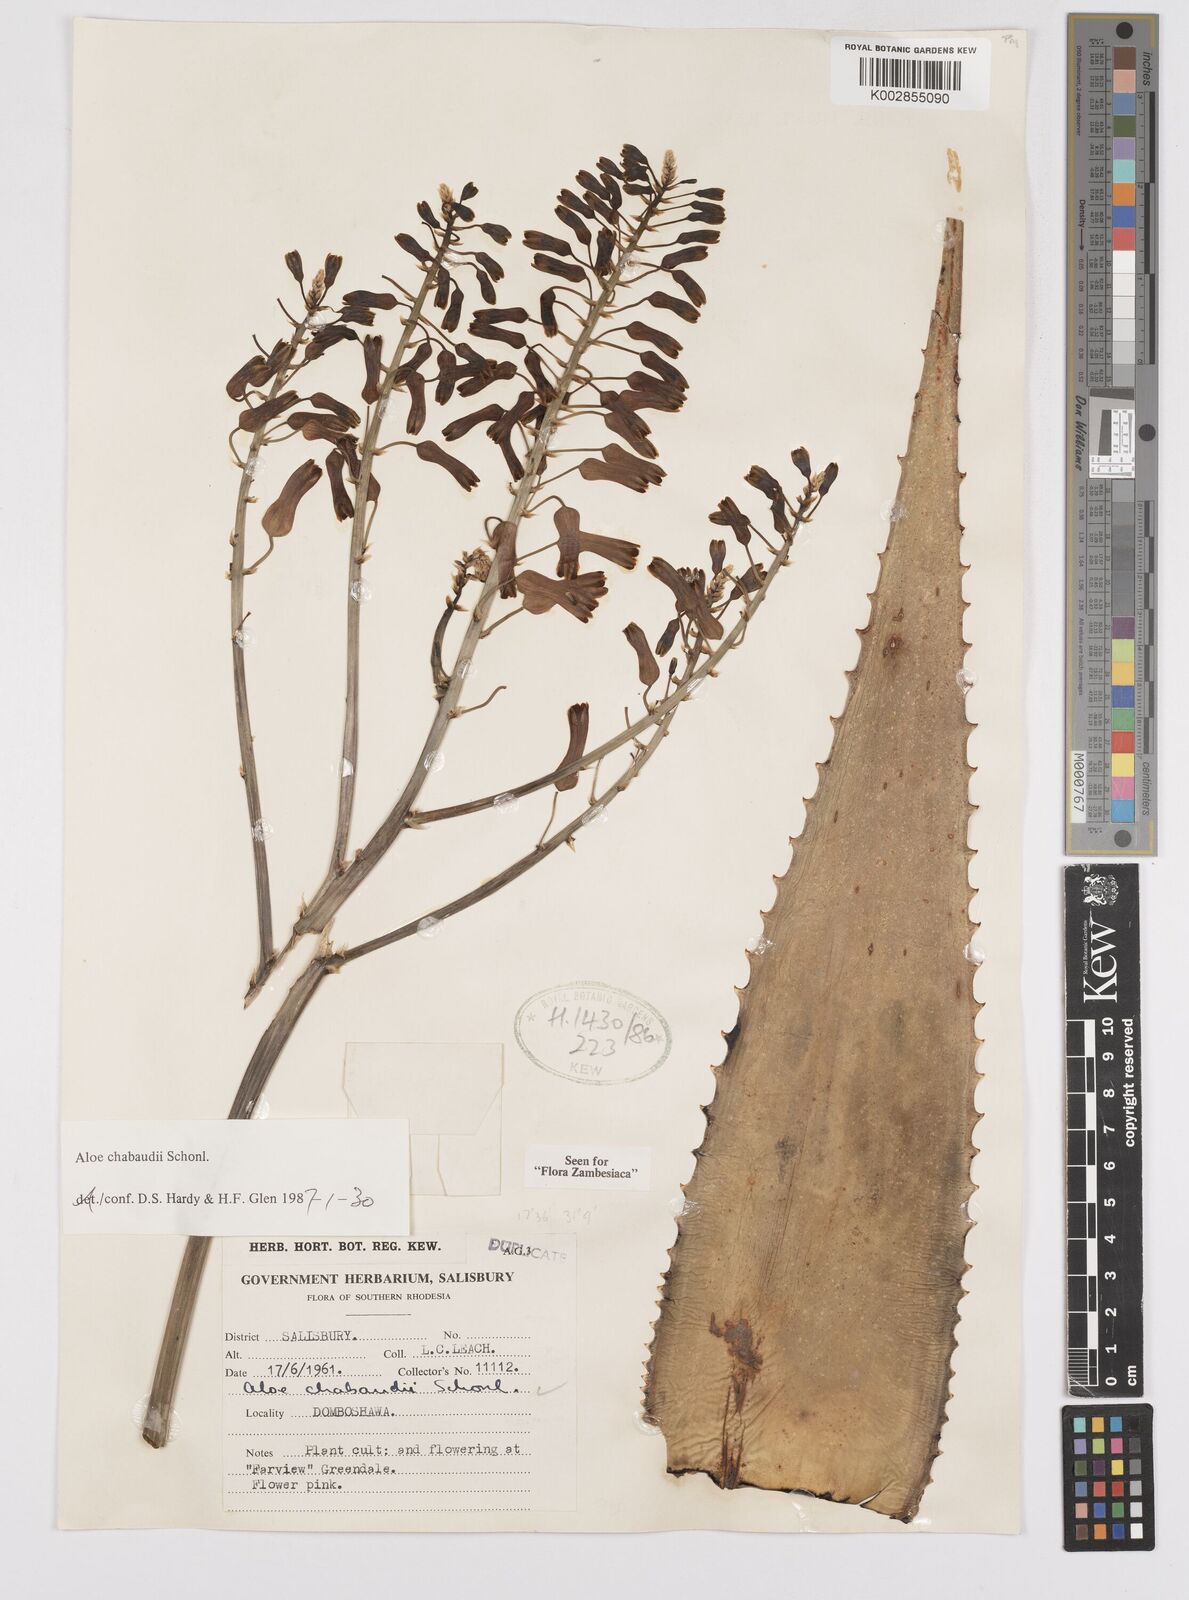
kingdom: Plantae
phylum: Tracheophyta
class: Liliopsida
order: Asparagales
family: Asphodelaceae
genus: Aloe
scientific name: Aloe chabaudii
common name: Chabaud's aloe
